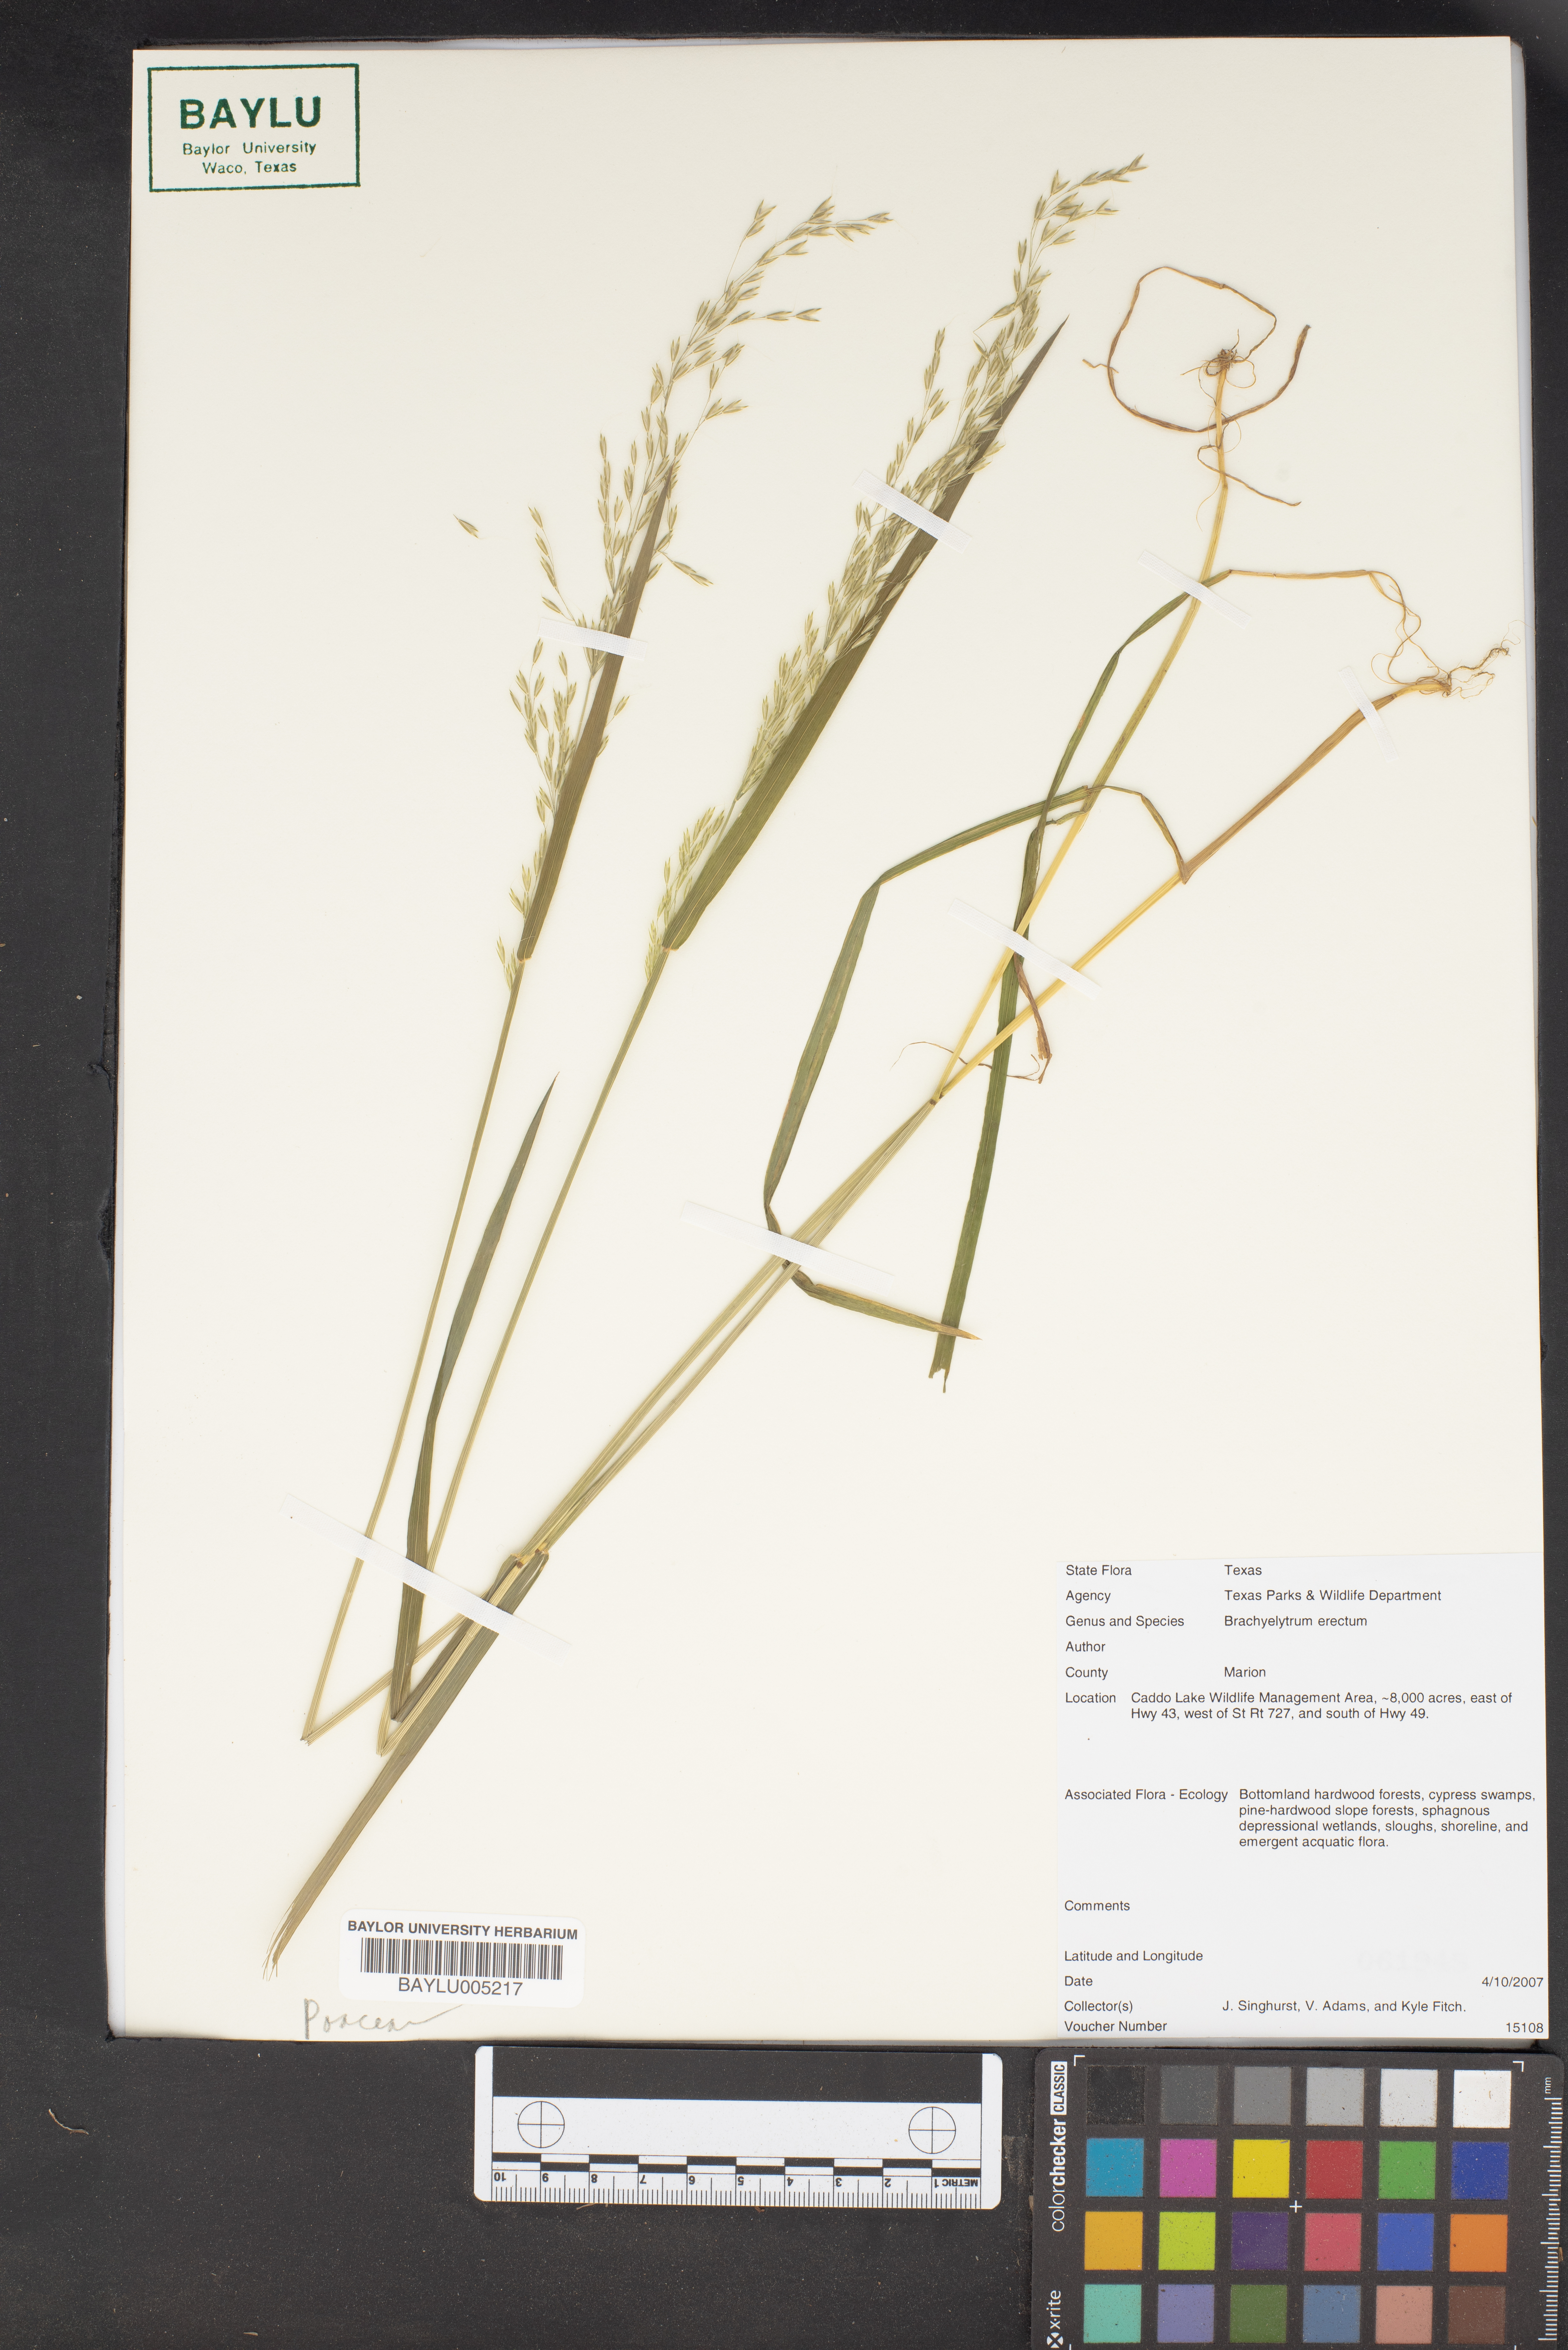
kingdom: Plantae
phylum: Tracheophyta
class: Liliopsida
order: Poales
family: Poaceae
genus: Brachyelytrum
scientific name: Brachyelytrum erectum
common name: Bearded shorthusk
